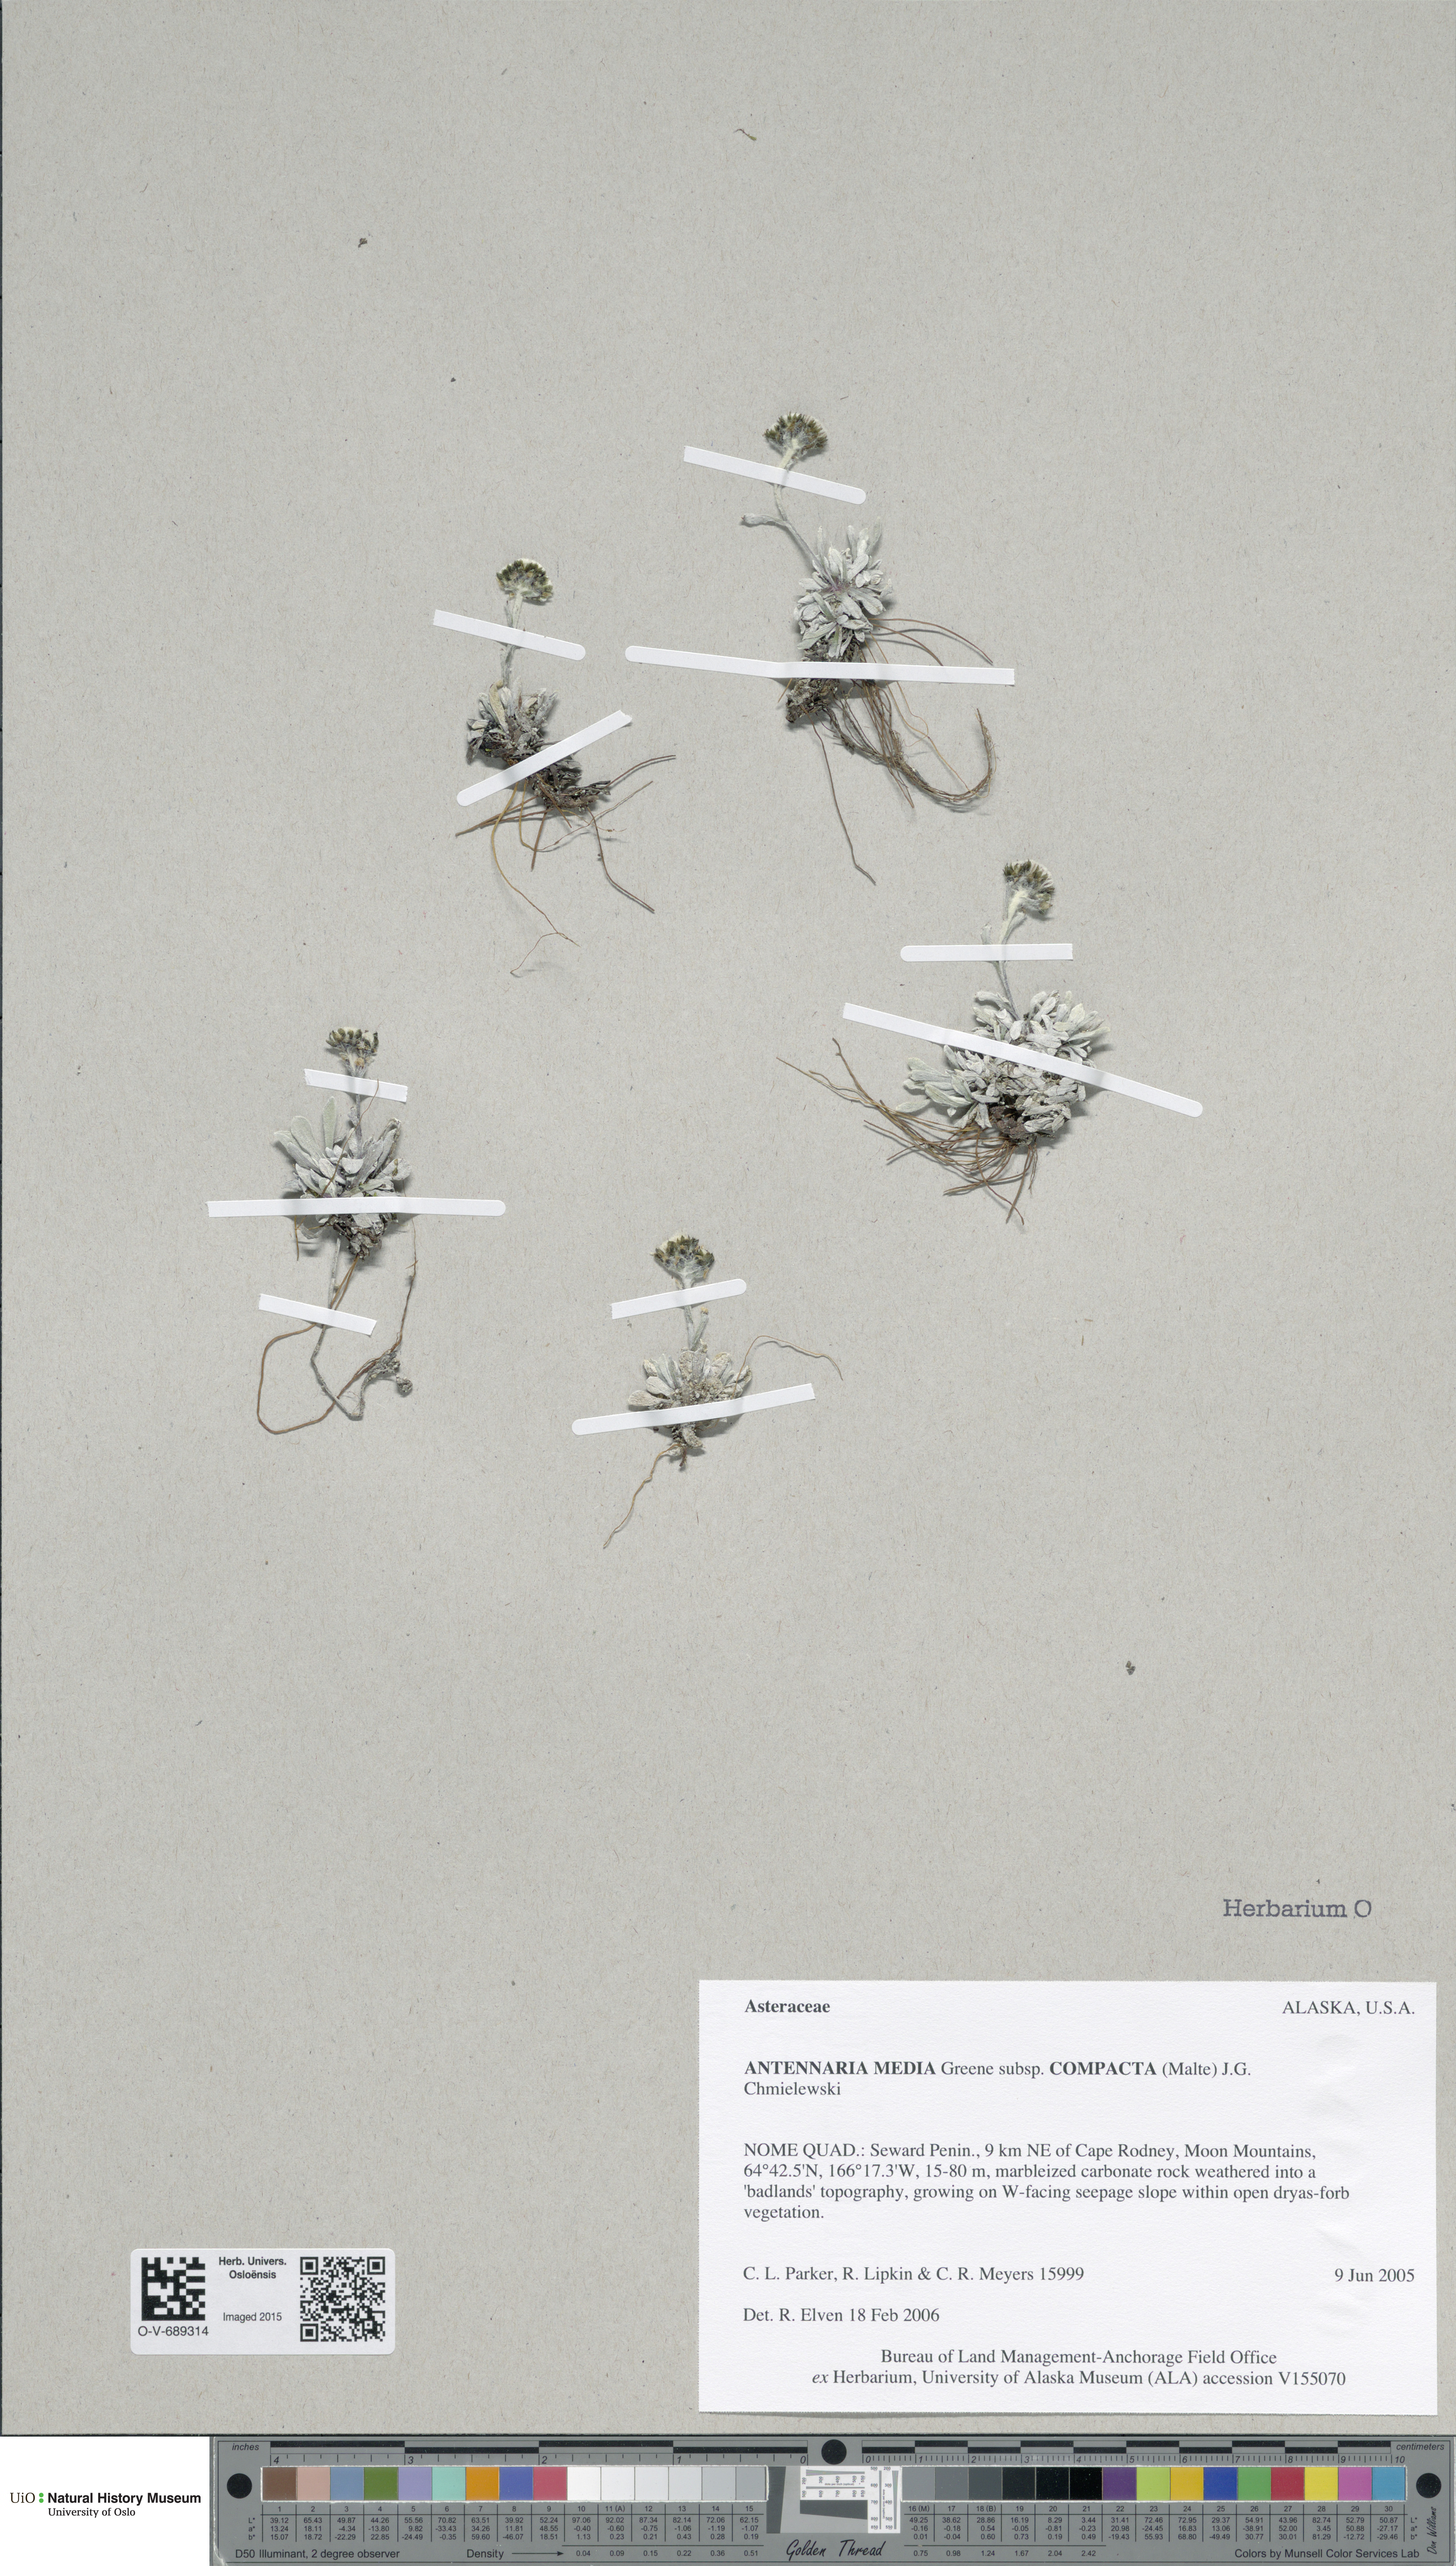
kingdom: Plantae
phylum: Tracheophyta
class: Magnoliopsida
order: Asterales
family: Asteraceae
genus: Antennaria
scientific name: Antennaria alpina
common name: Alpine pussytoes
